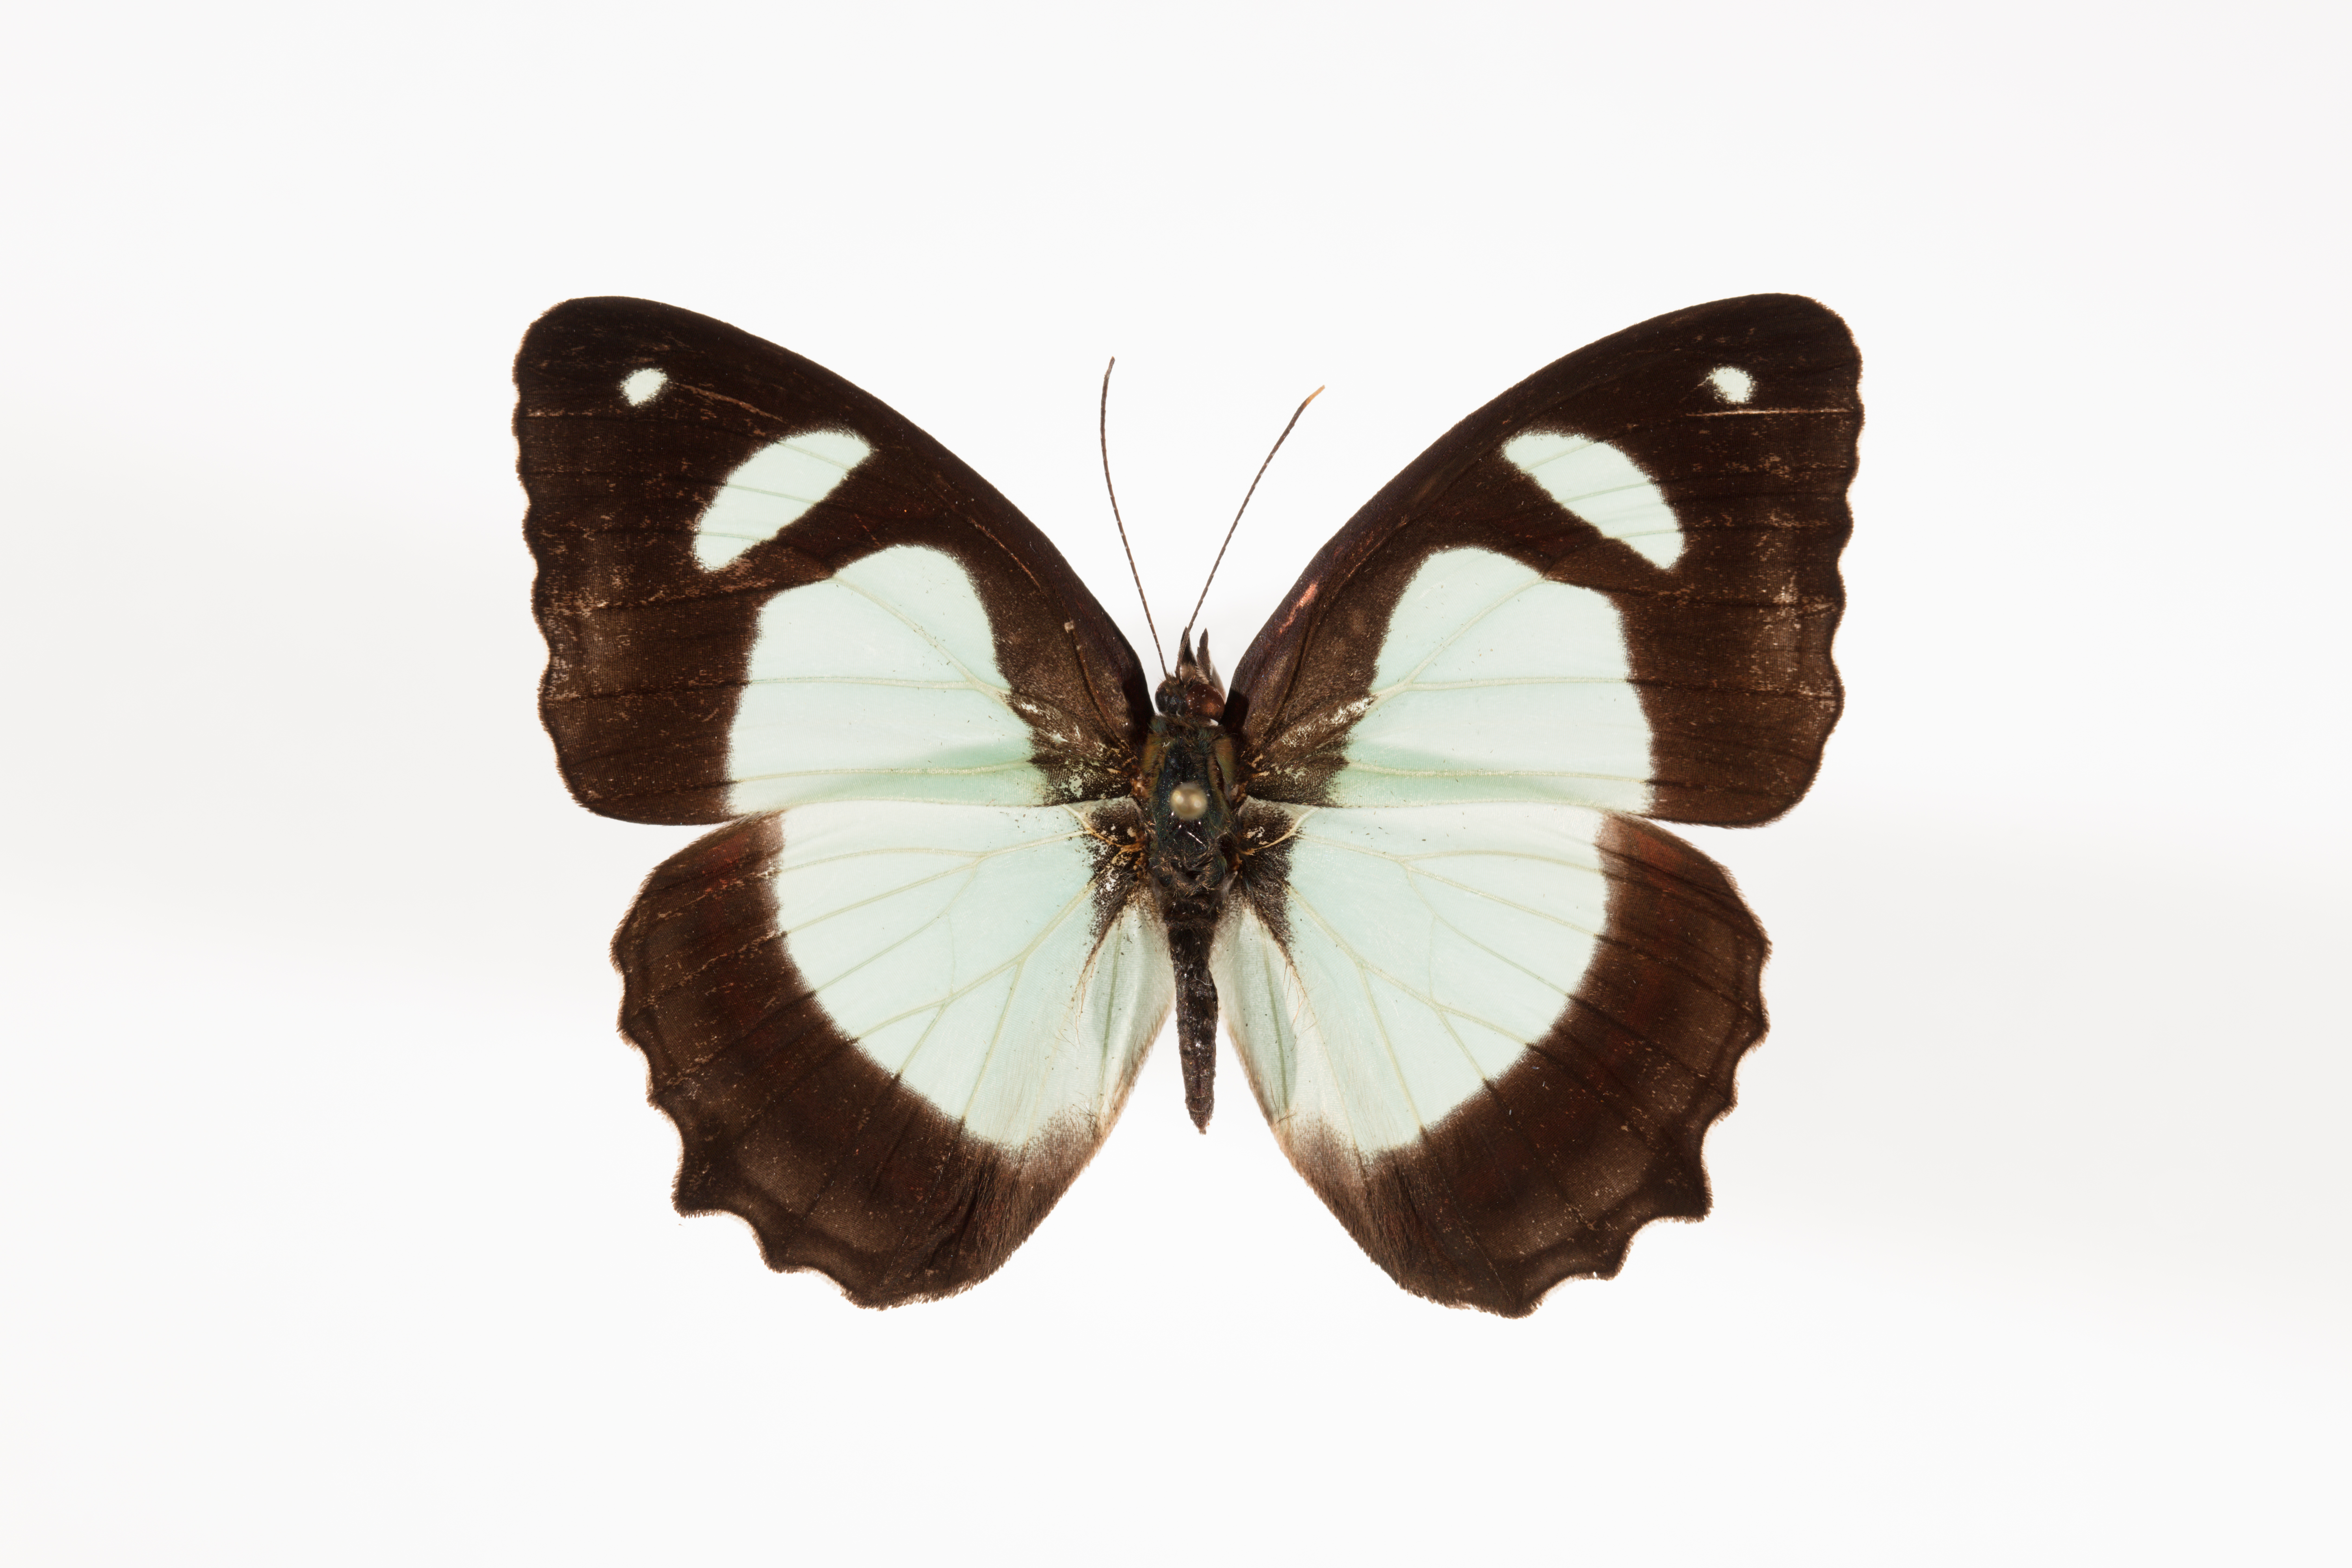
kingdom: Animalia
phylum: Arthropoda
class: Insecta
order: Lepidoptera
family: Nymphalidae
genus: Pyrrhogyra
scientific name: Pyrrhogyra crameri
